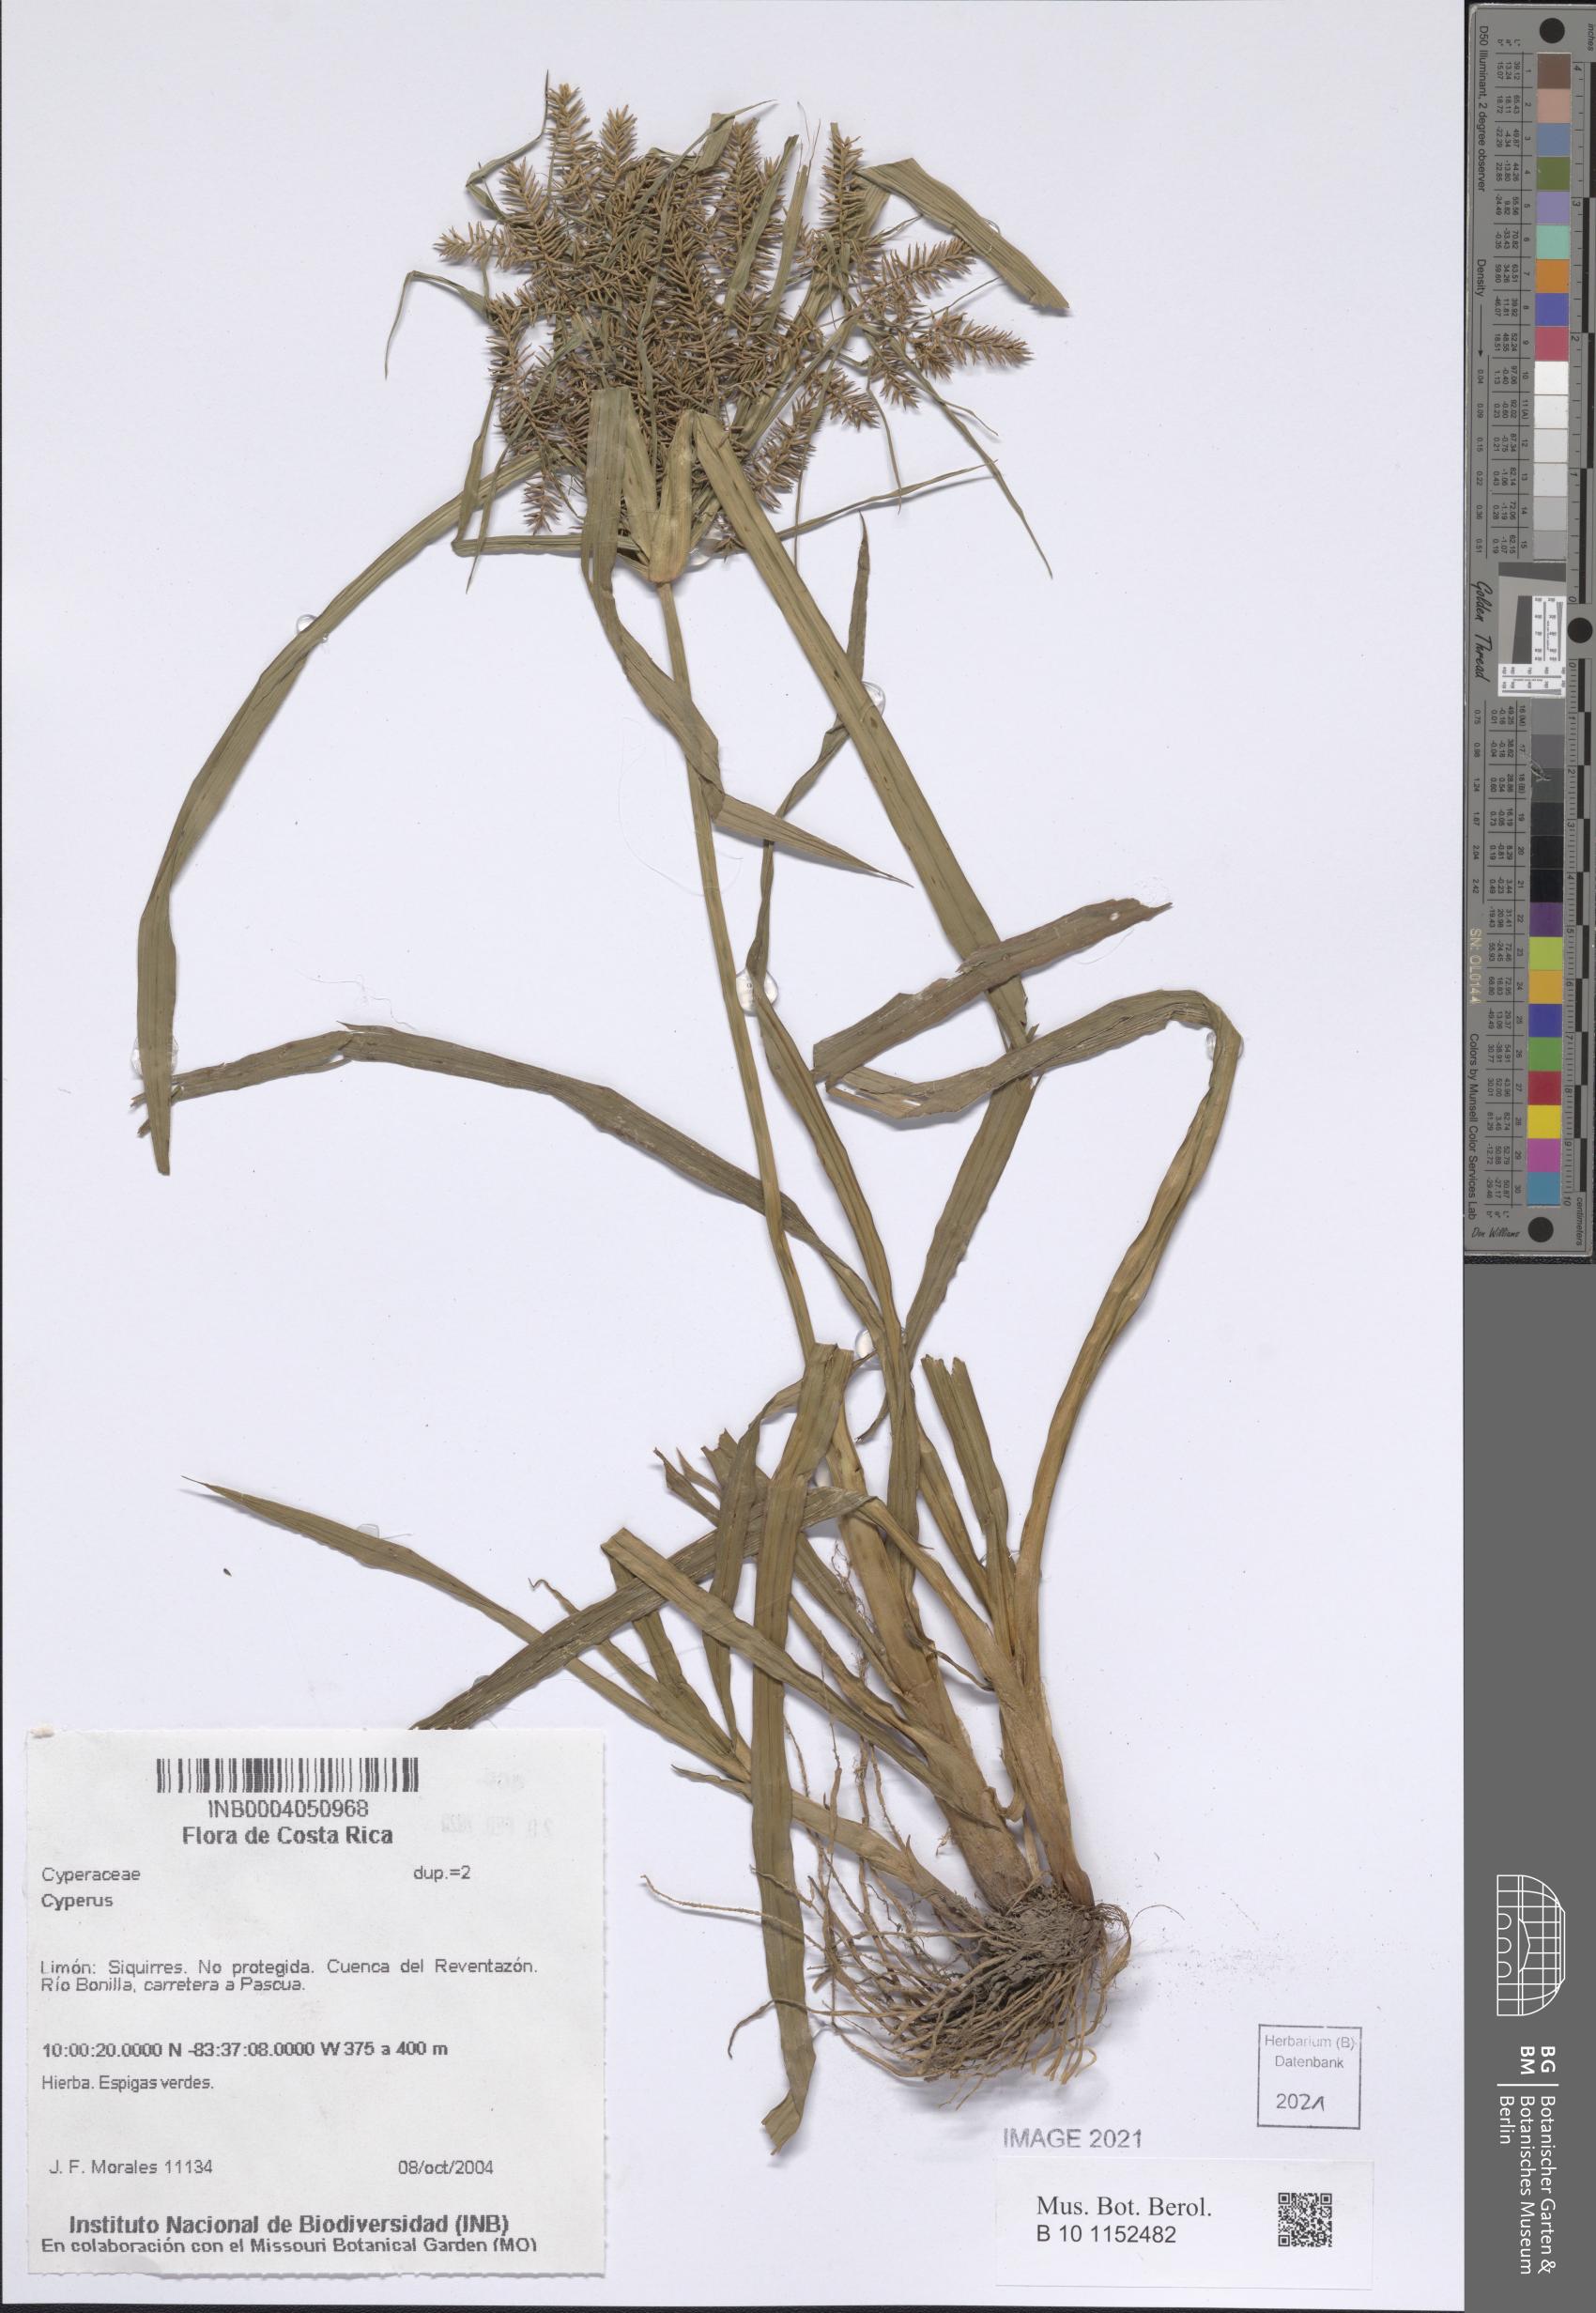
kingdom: Plantae
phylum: Tracheophyta
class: Liliopsida
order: Poales
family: Cyperaceae
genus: Cyperus
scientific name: Cyperus
